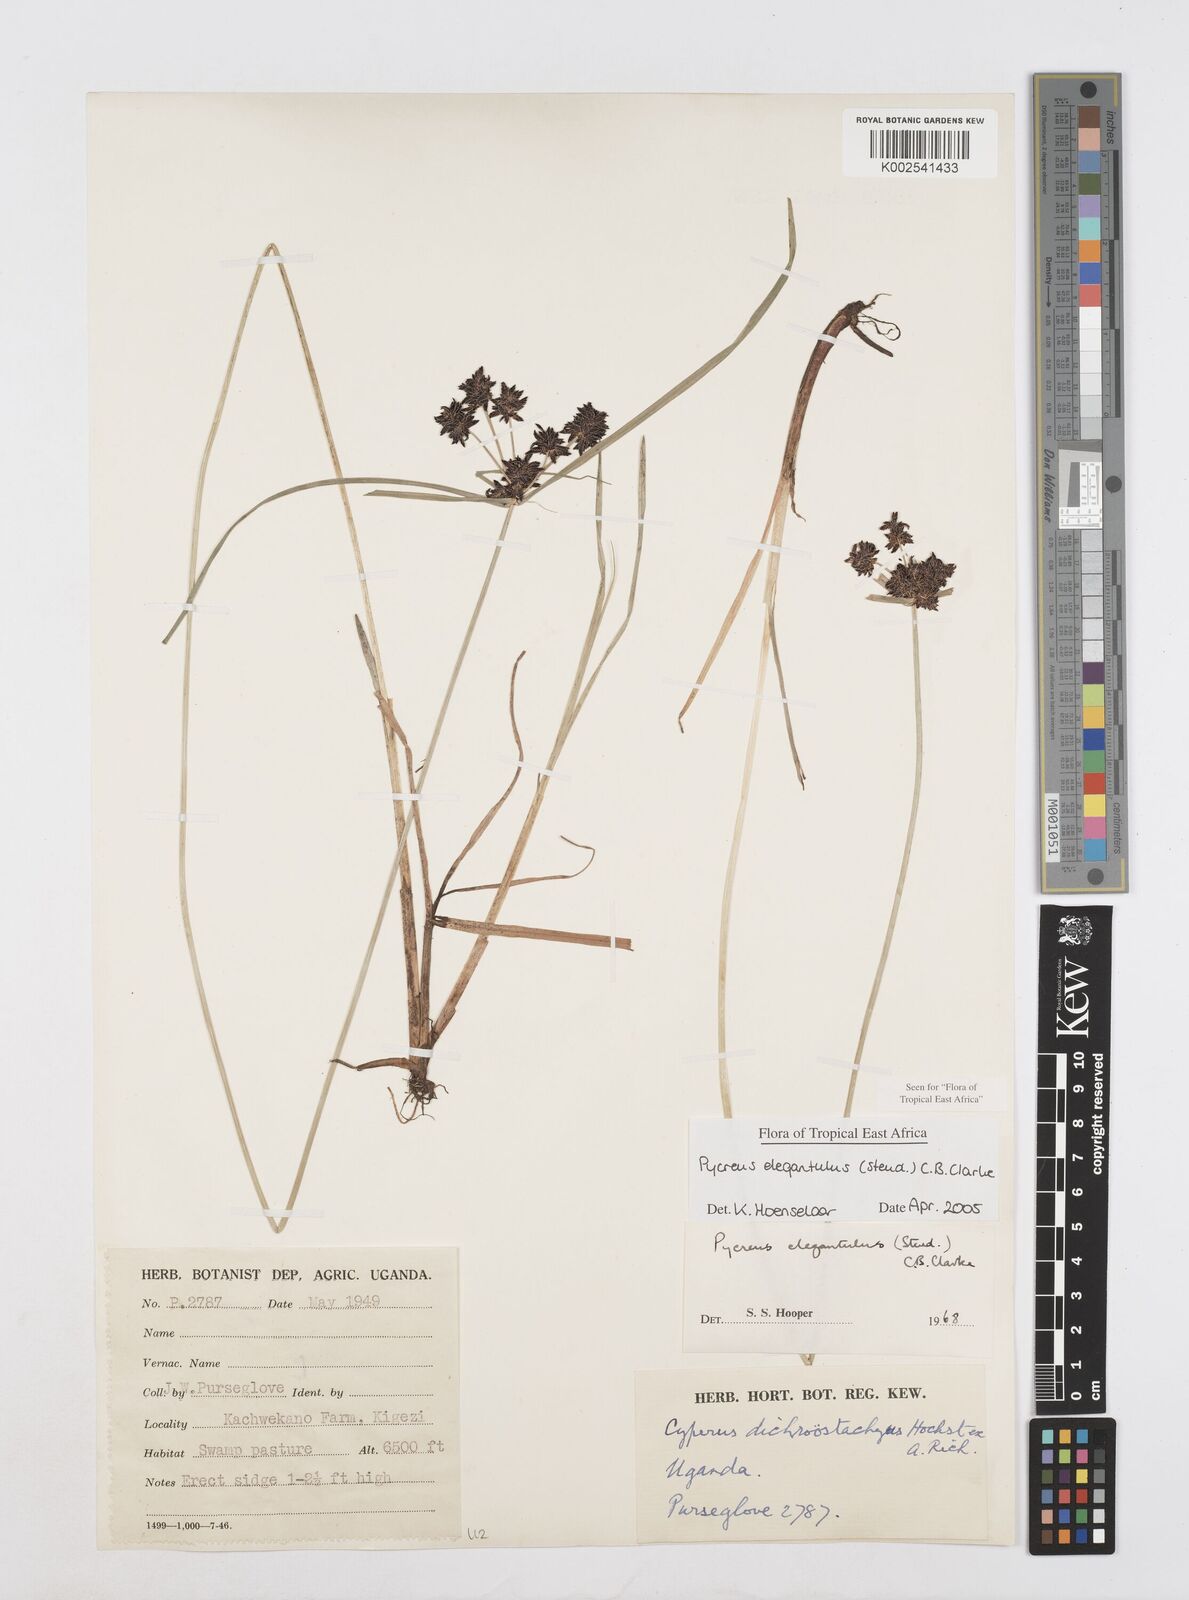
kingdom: Plantae
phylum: Tracheophyta
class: Liliopsida
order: Poales
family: Cyperaceae
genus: Cyperus
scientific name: Cyperus elegantulus
